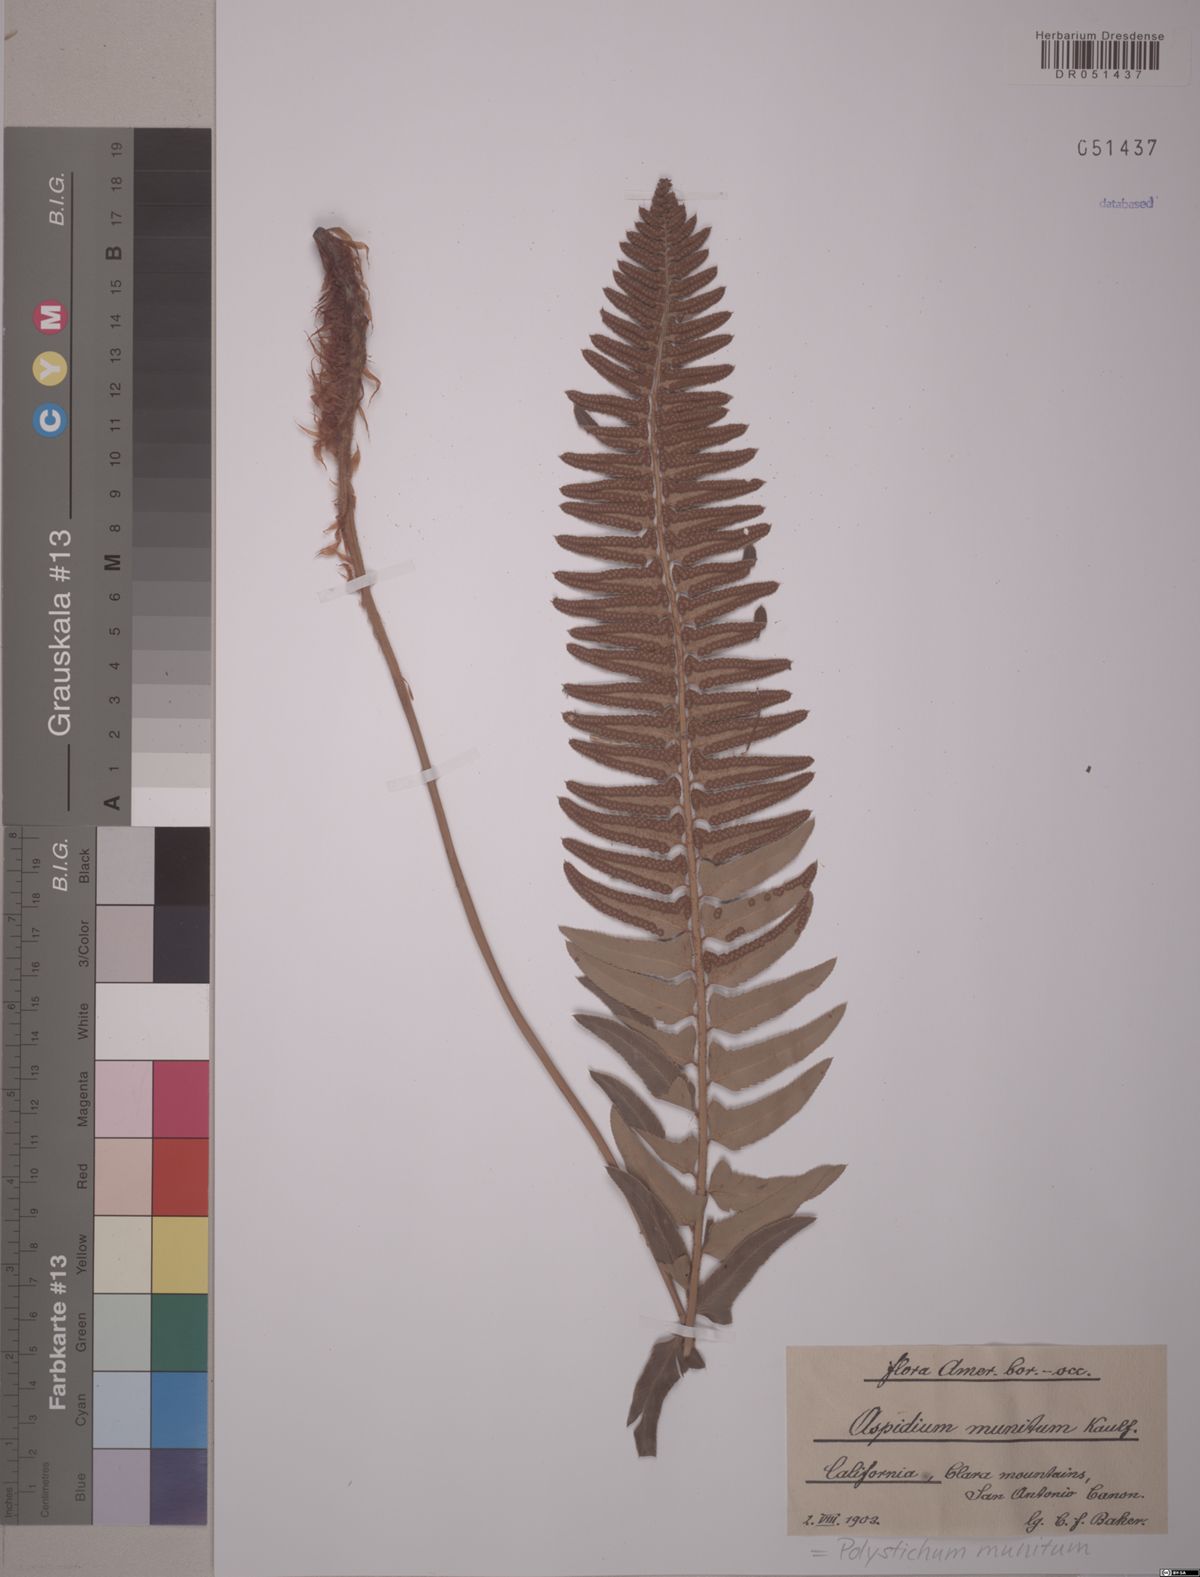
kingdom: Plantae
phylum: Tracheophyta
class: Polypodiopsida
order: Polypodiales
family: Dryopteridaceae
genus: Polystichum
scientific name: Polystichum munitum
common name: Western sword-fern
